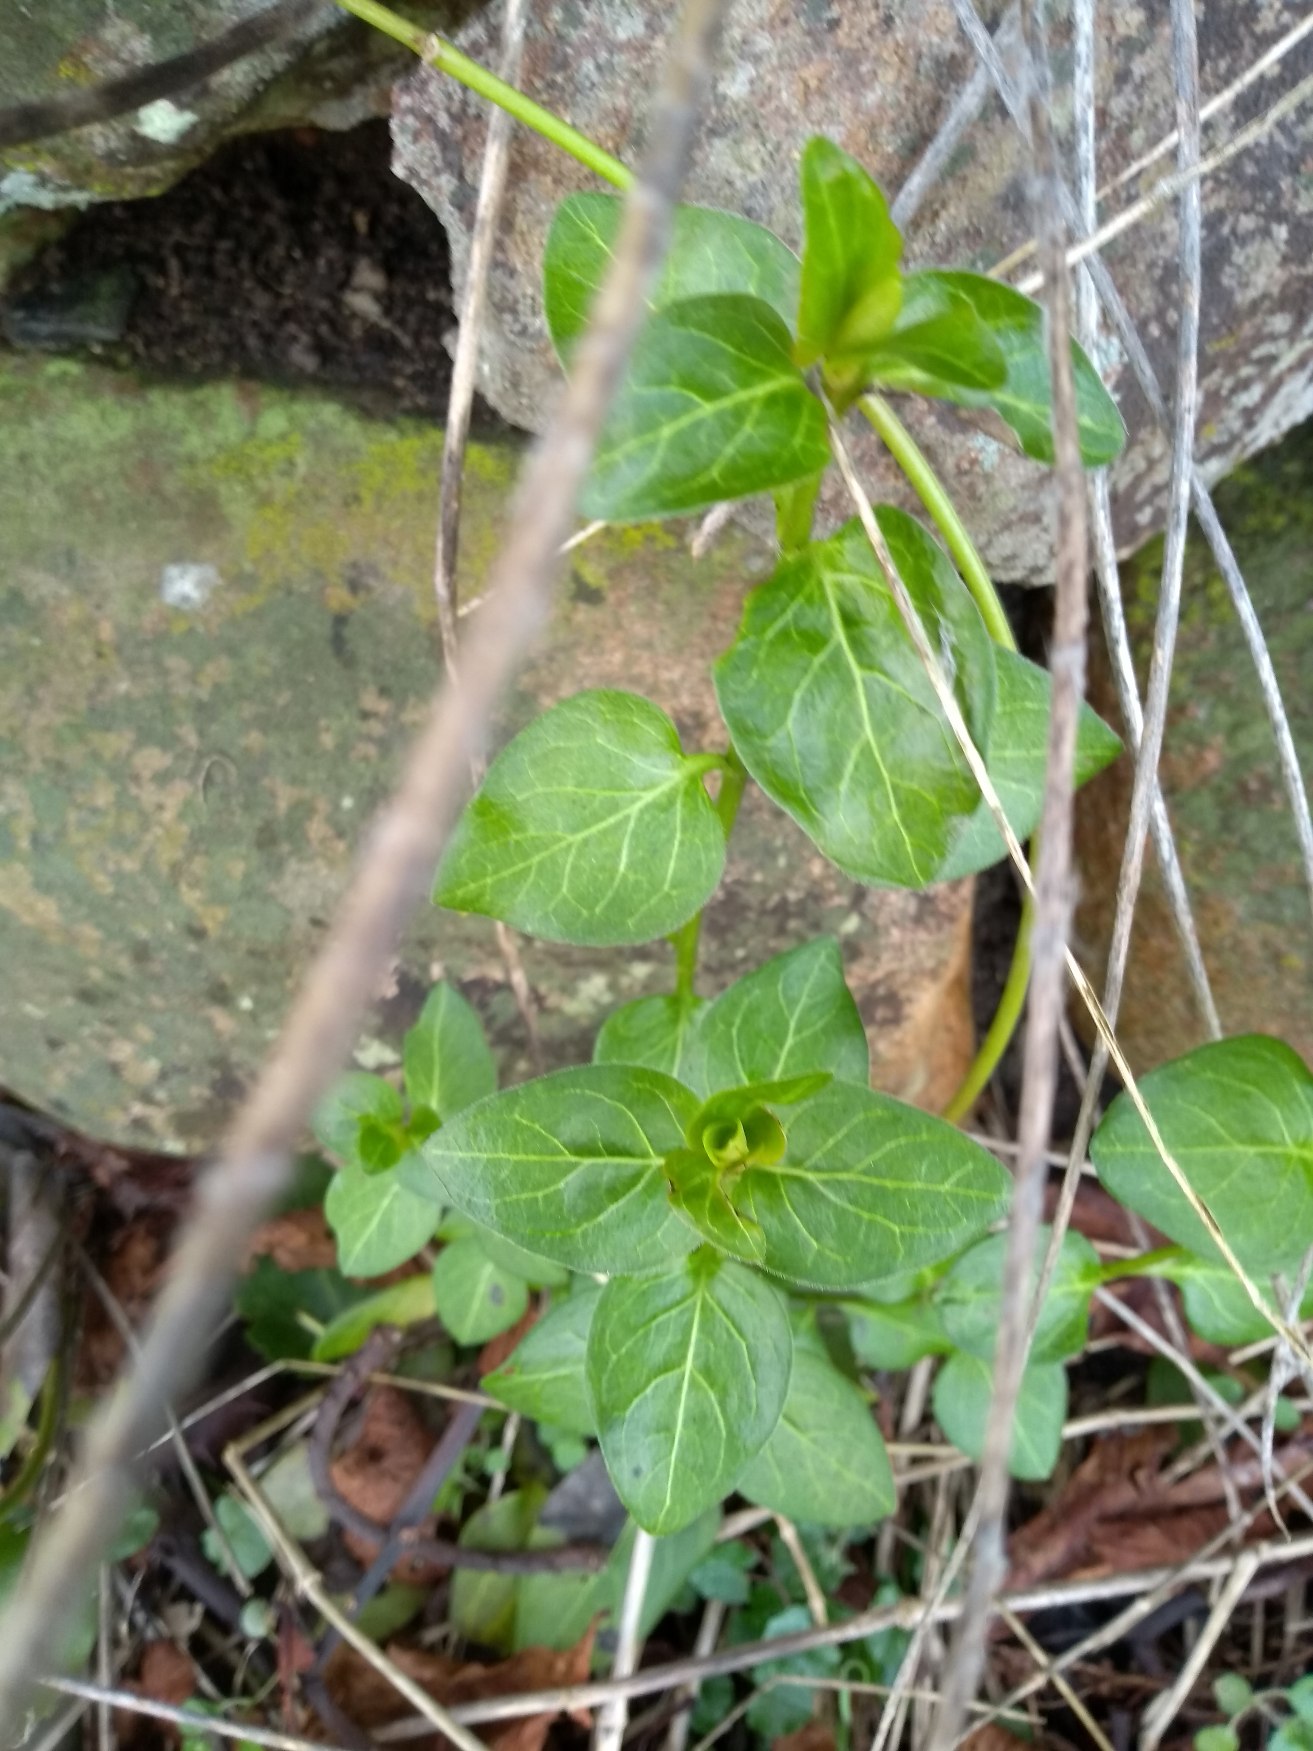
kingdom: Plantae
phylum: Tracheophyta
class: Magnoliopsida
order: Gentianales
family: Apocynaceae
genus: Vinca
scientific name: Vinca major
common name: Stor singrøn
